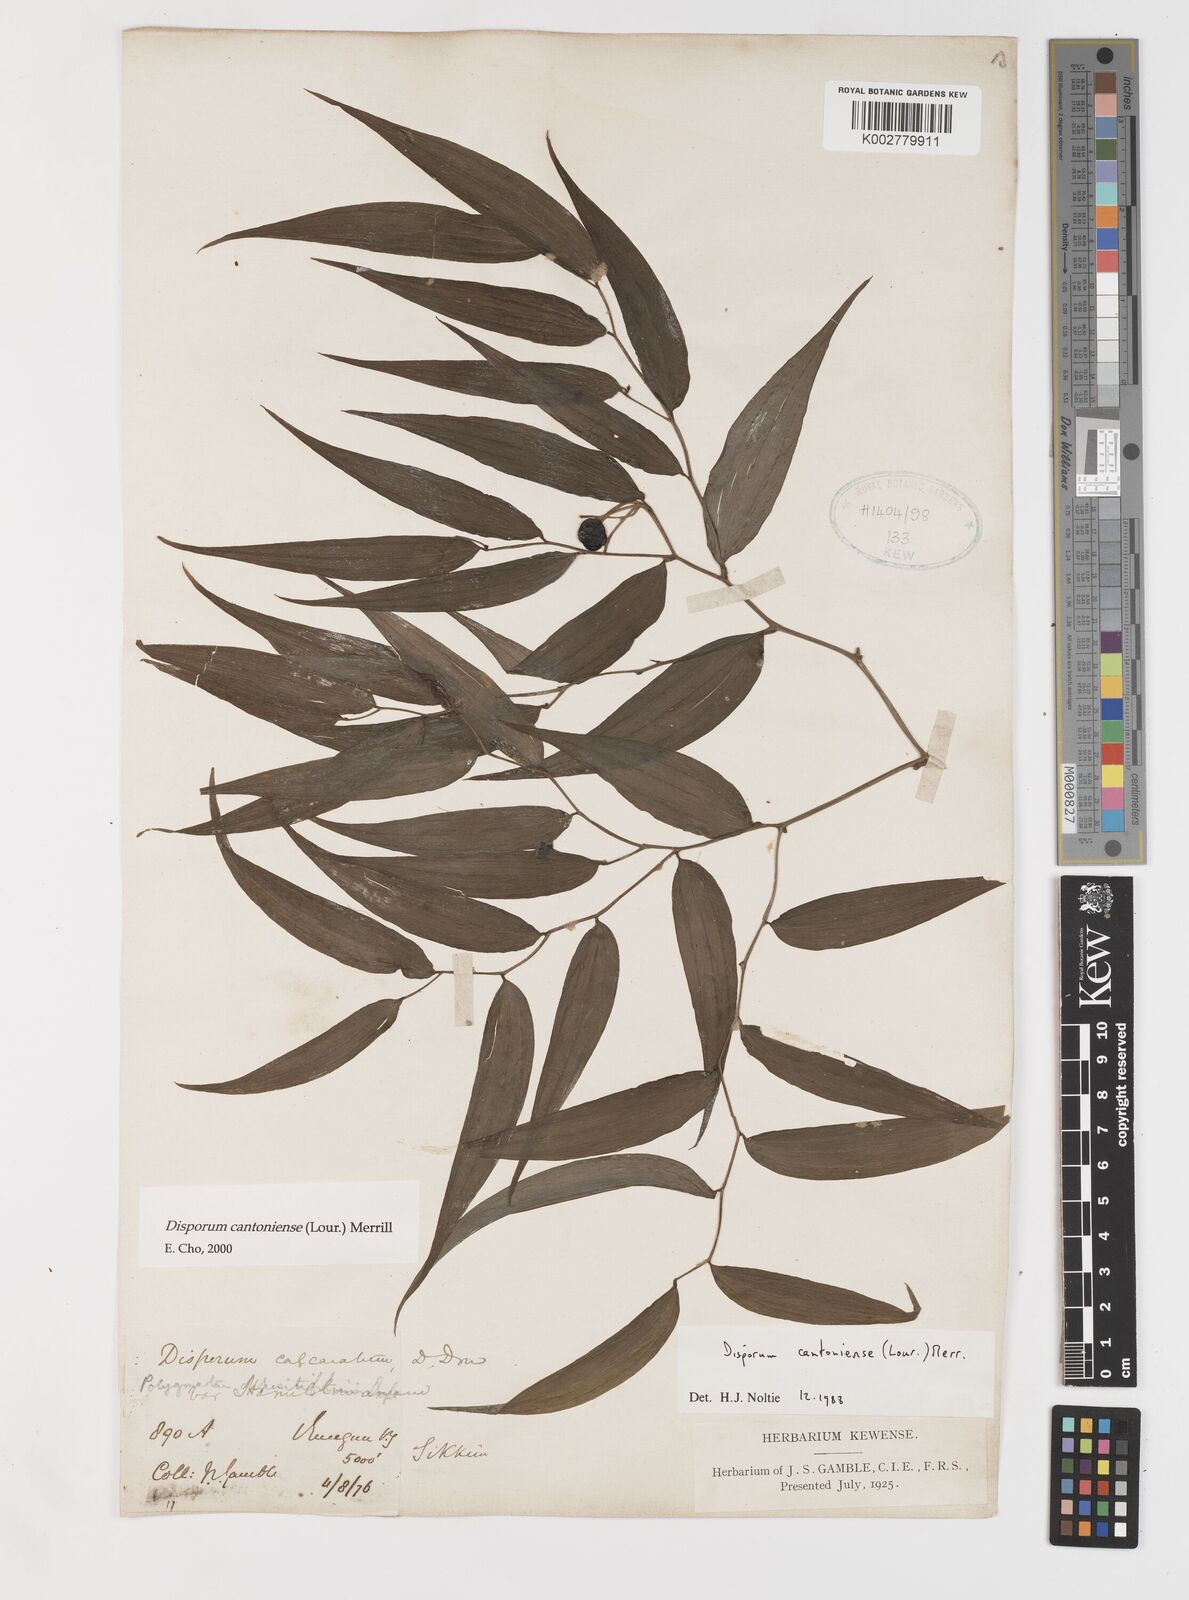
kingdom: Plantae
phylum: Tracheophyta
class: Liliopsida
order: Liliales
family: Colchicaceae
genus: Disporum
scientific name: Disporum cantoniense
